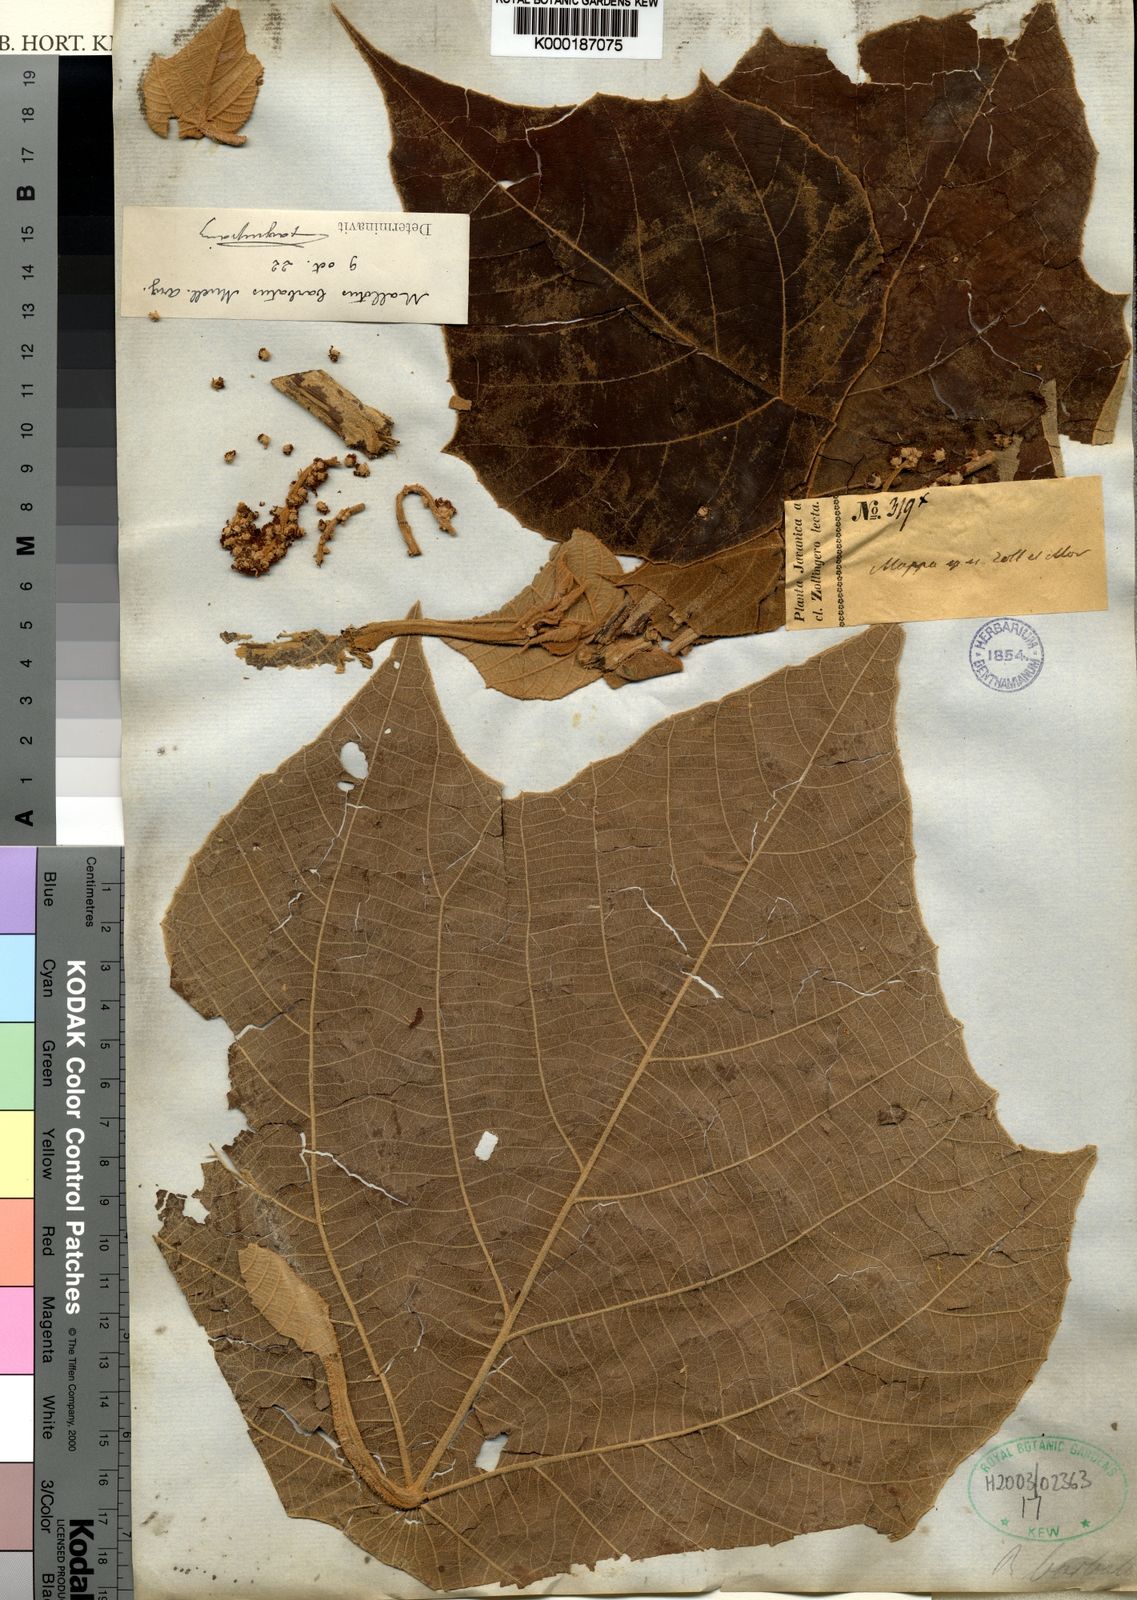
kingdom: Plantae
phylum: Tracheophyta
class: Magnoliopsida
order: Malpighiales
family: Euphorbiaceae
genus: Mallotus
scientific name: Mallotus mollissimus
